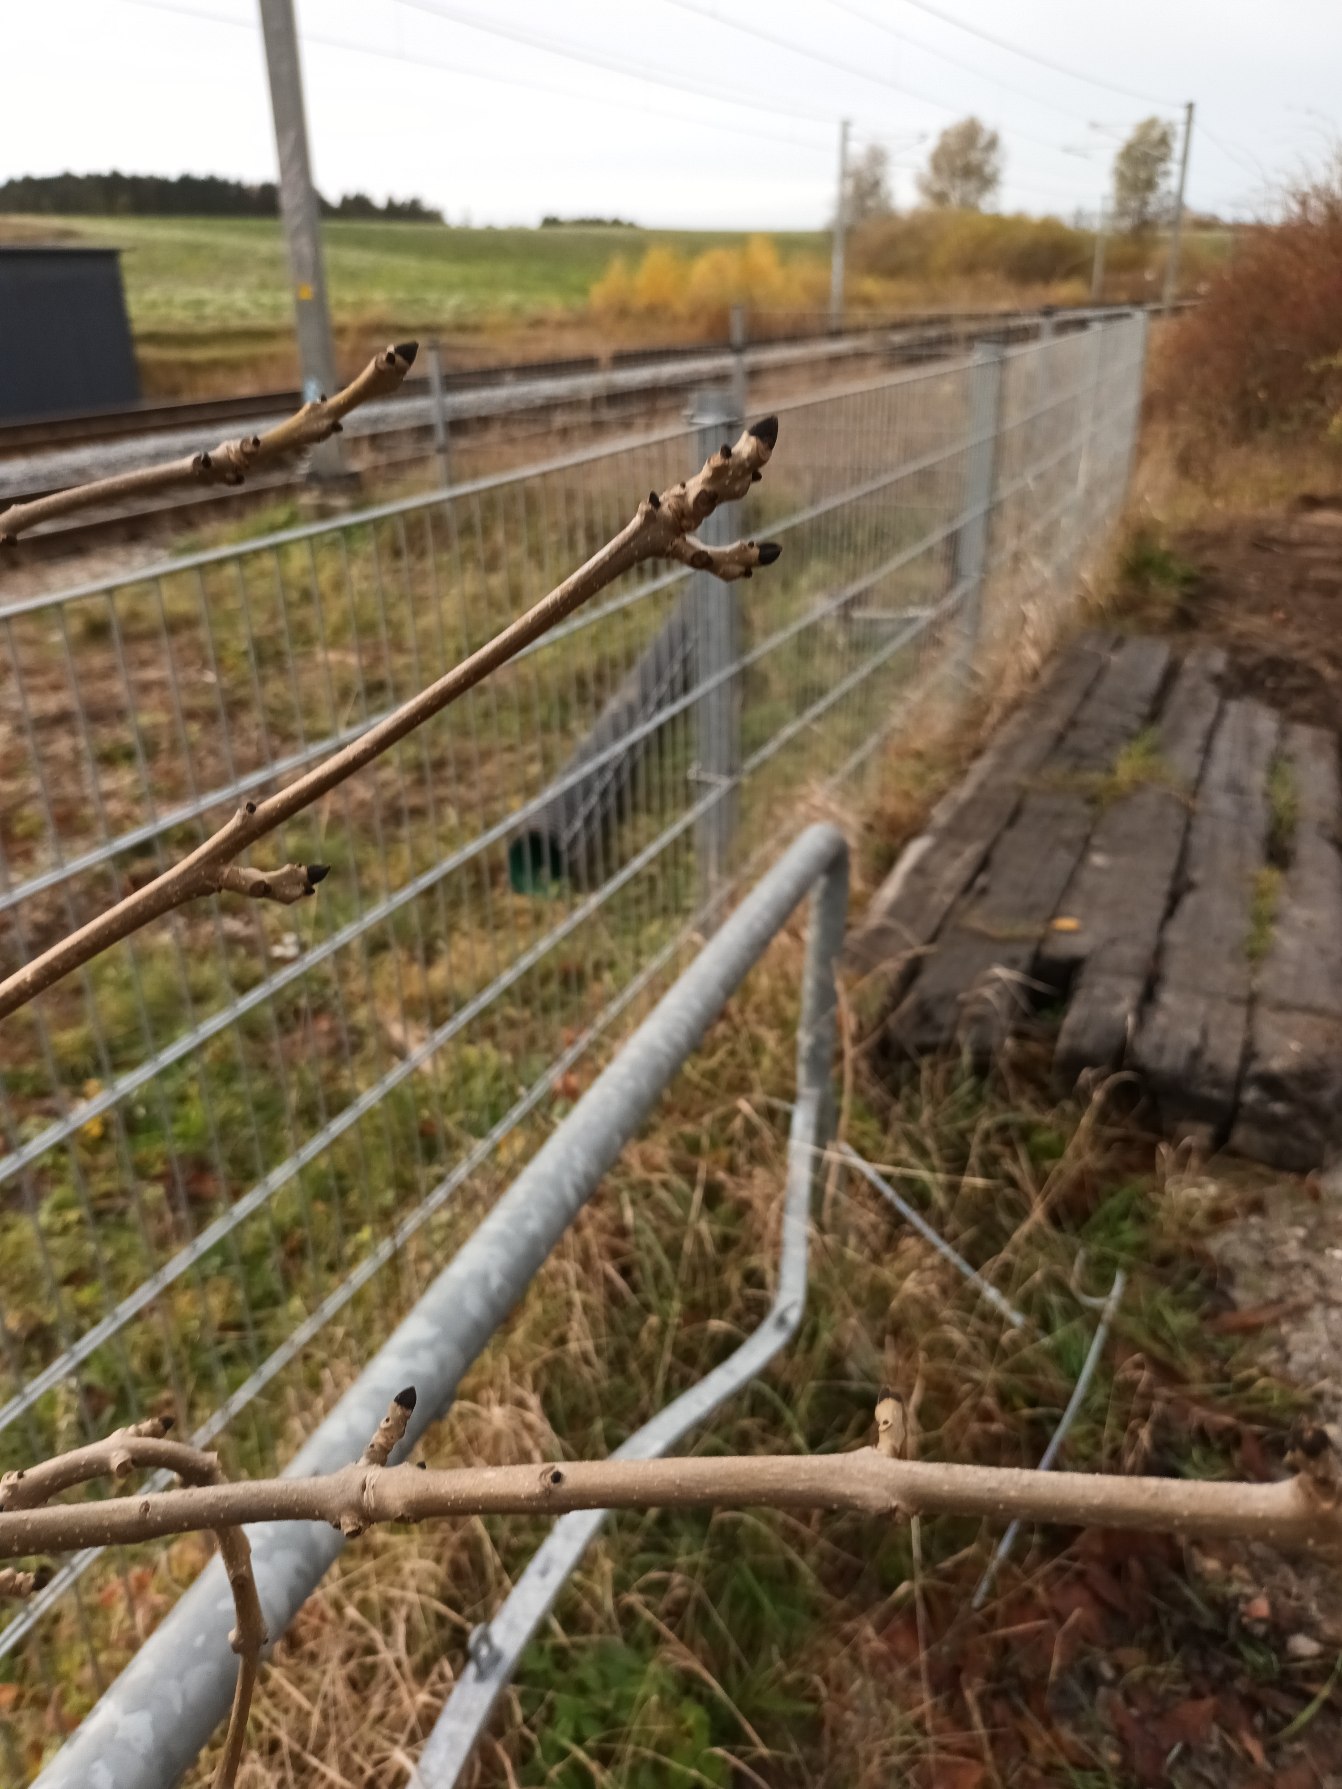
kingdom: Plantae
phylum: Tracheophyta
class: Magnoliopsida
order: Lamiales
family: Oleaceae
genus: Fraxinus
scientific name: Fraxinus excelsior
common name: Ask
